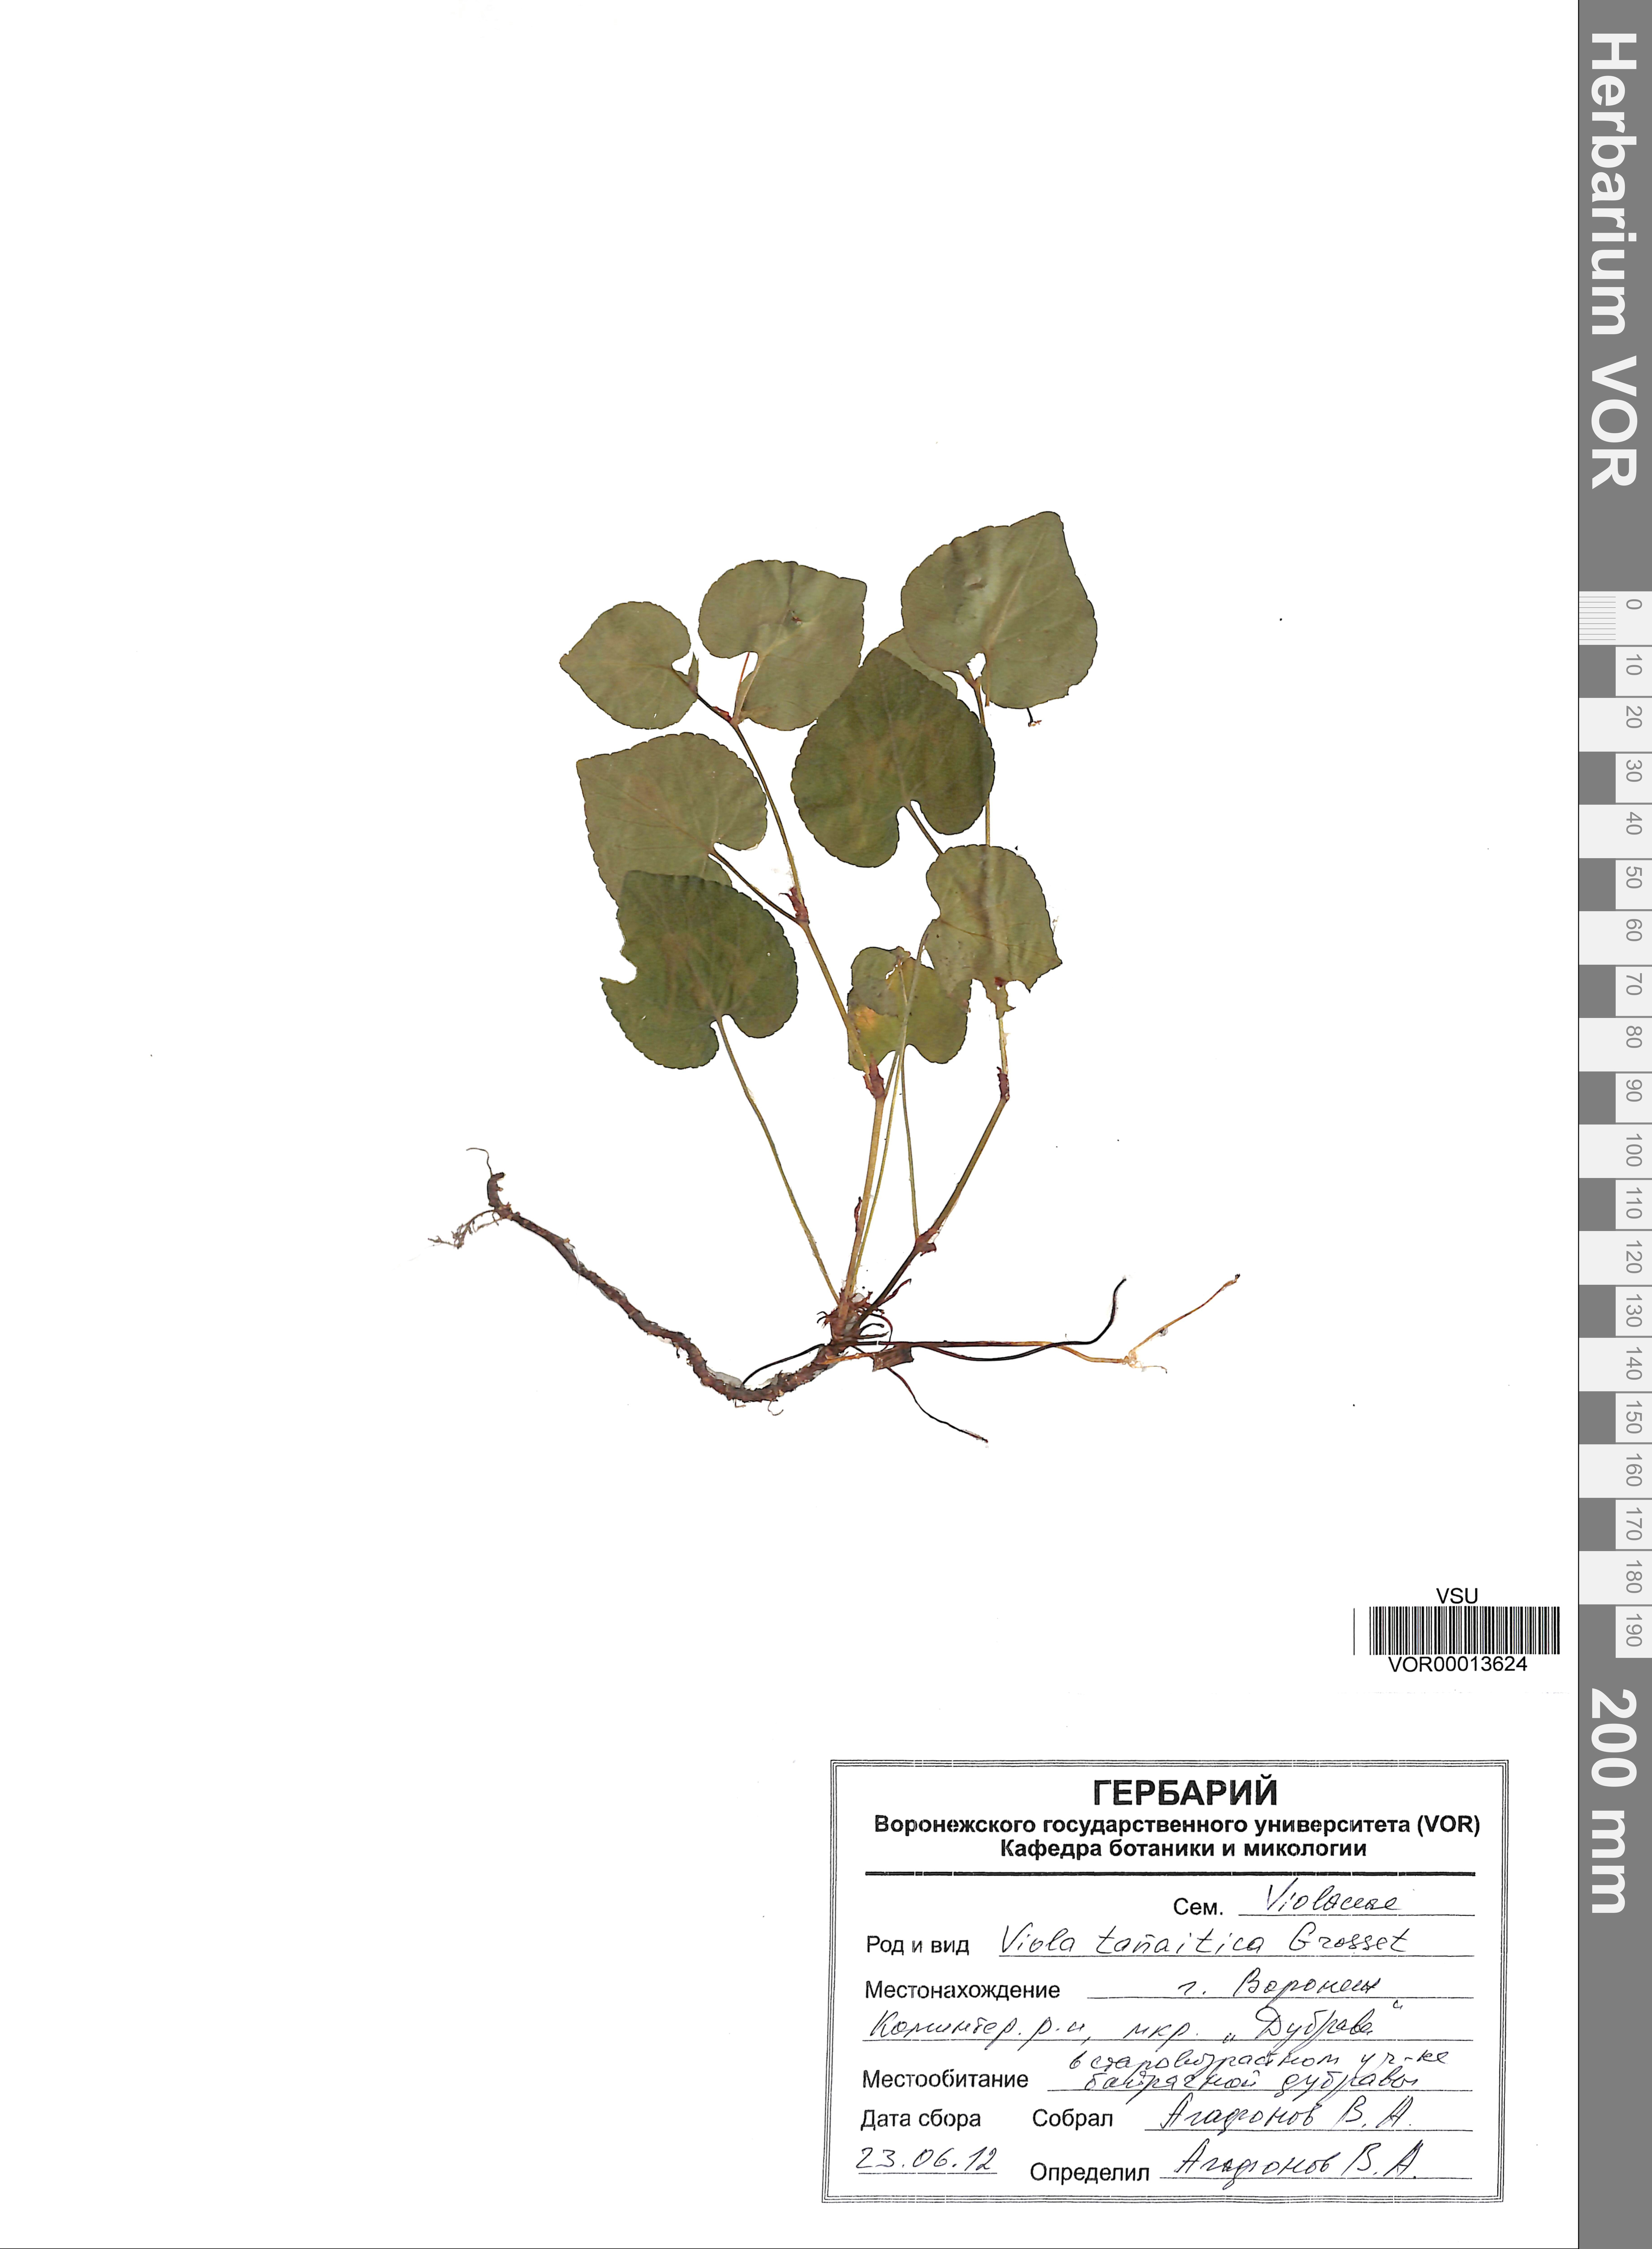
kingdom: Plantae
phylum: Tracheophyta
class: Magnoliopsida
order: Malpighiales
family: Violaceae
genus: Viola
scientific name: Viola tanaitica
